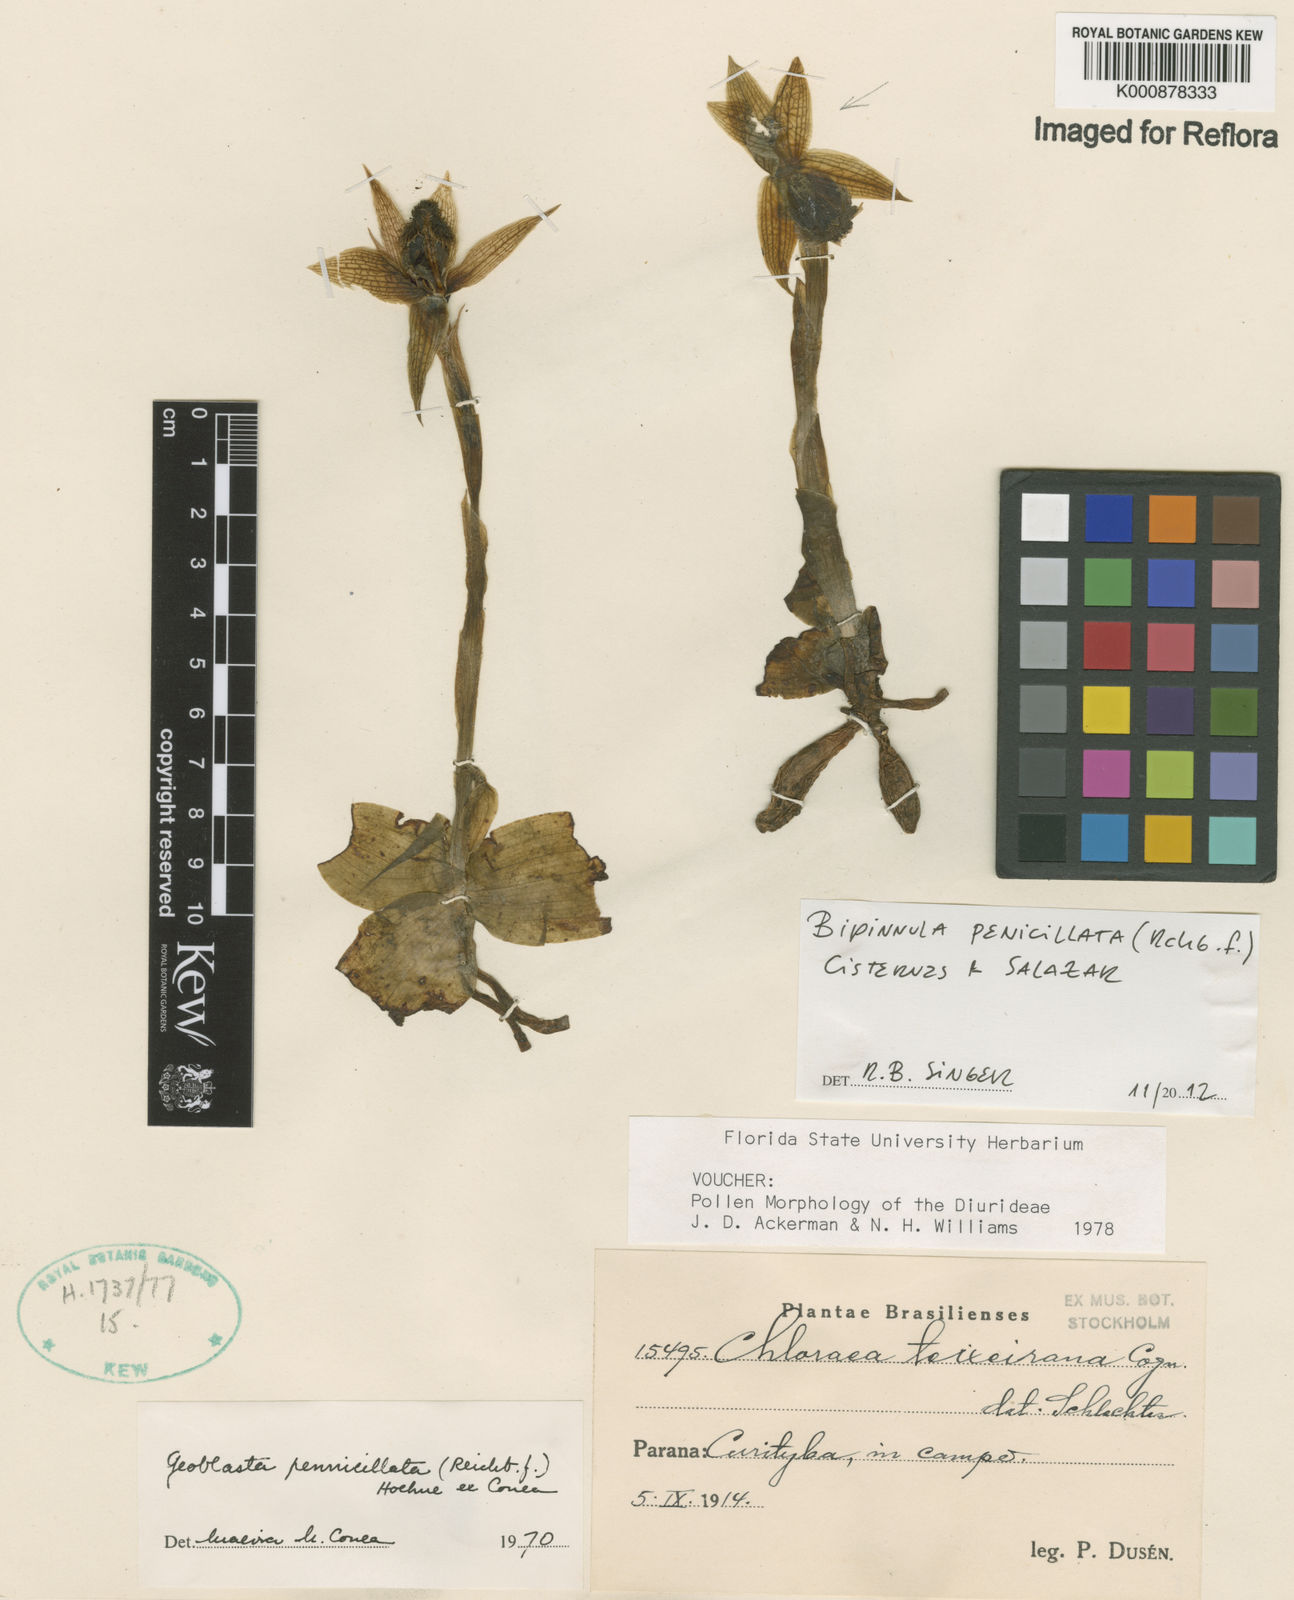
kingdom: Plantae
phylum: Tracheophyta
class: Liliopsida
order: Asparagales
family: Orchidaceae
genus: Bipinnula
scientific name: Bipinnula penicillata
